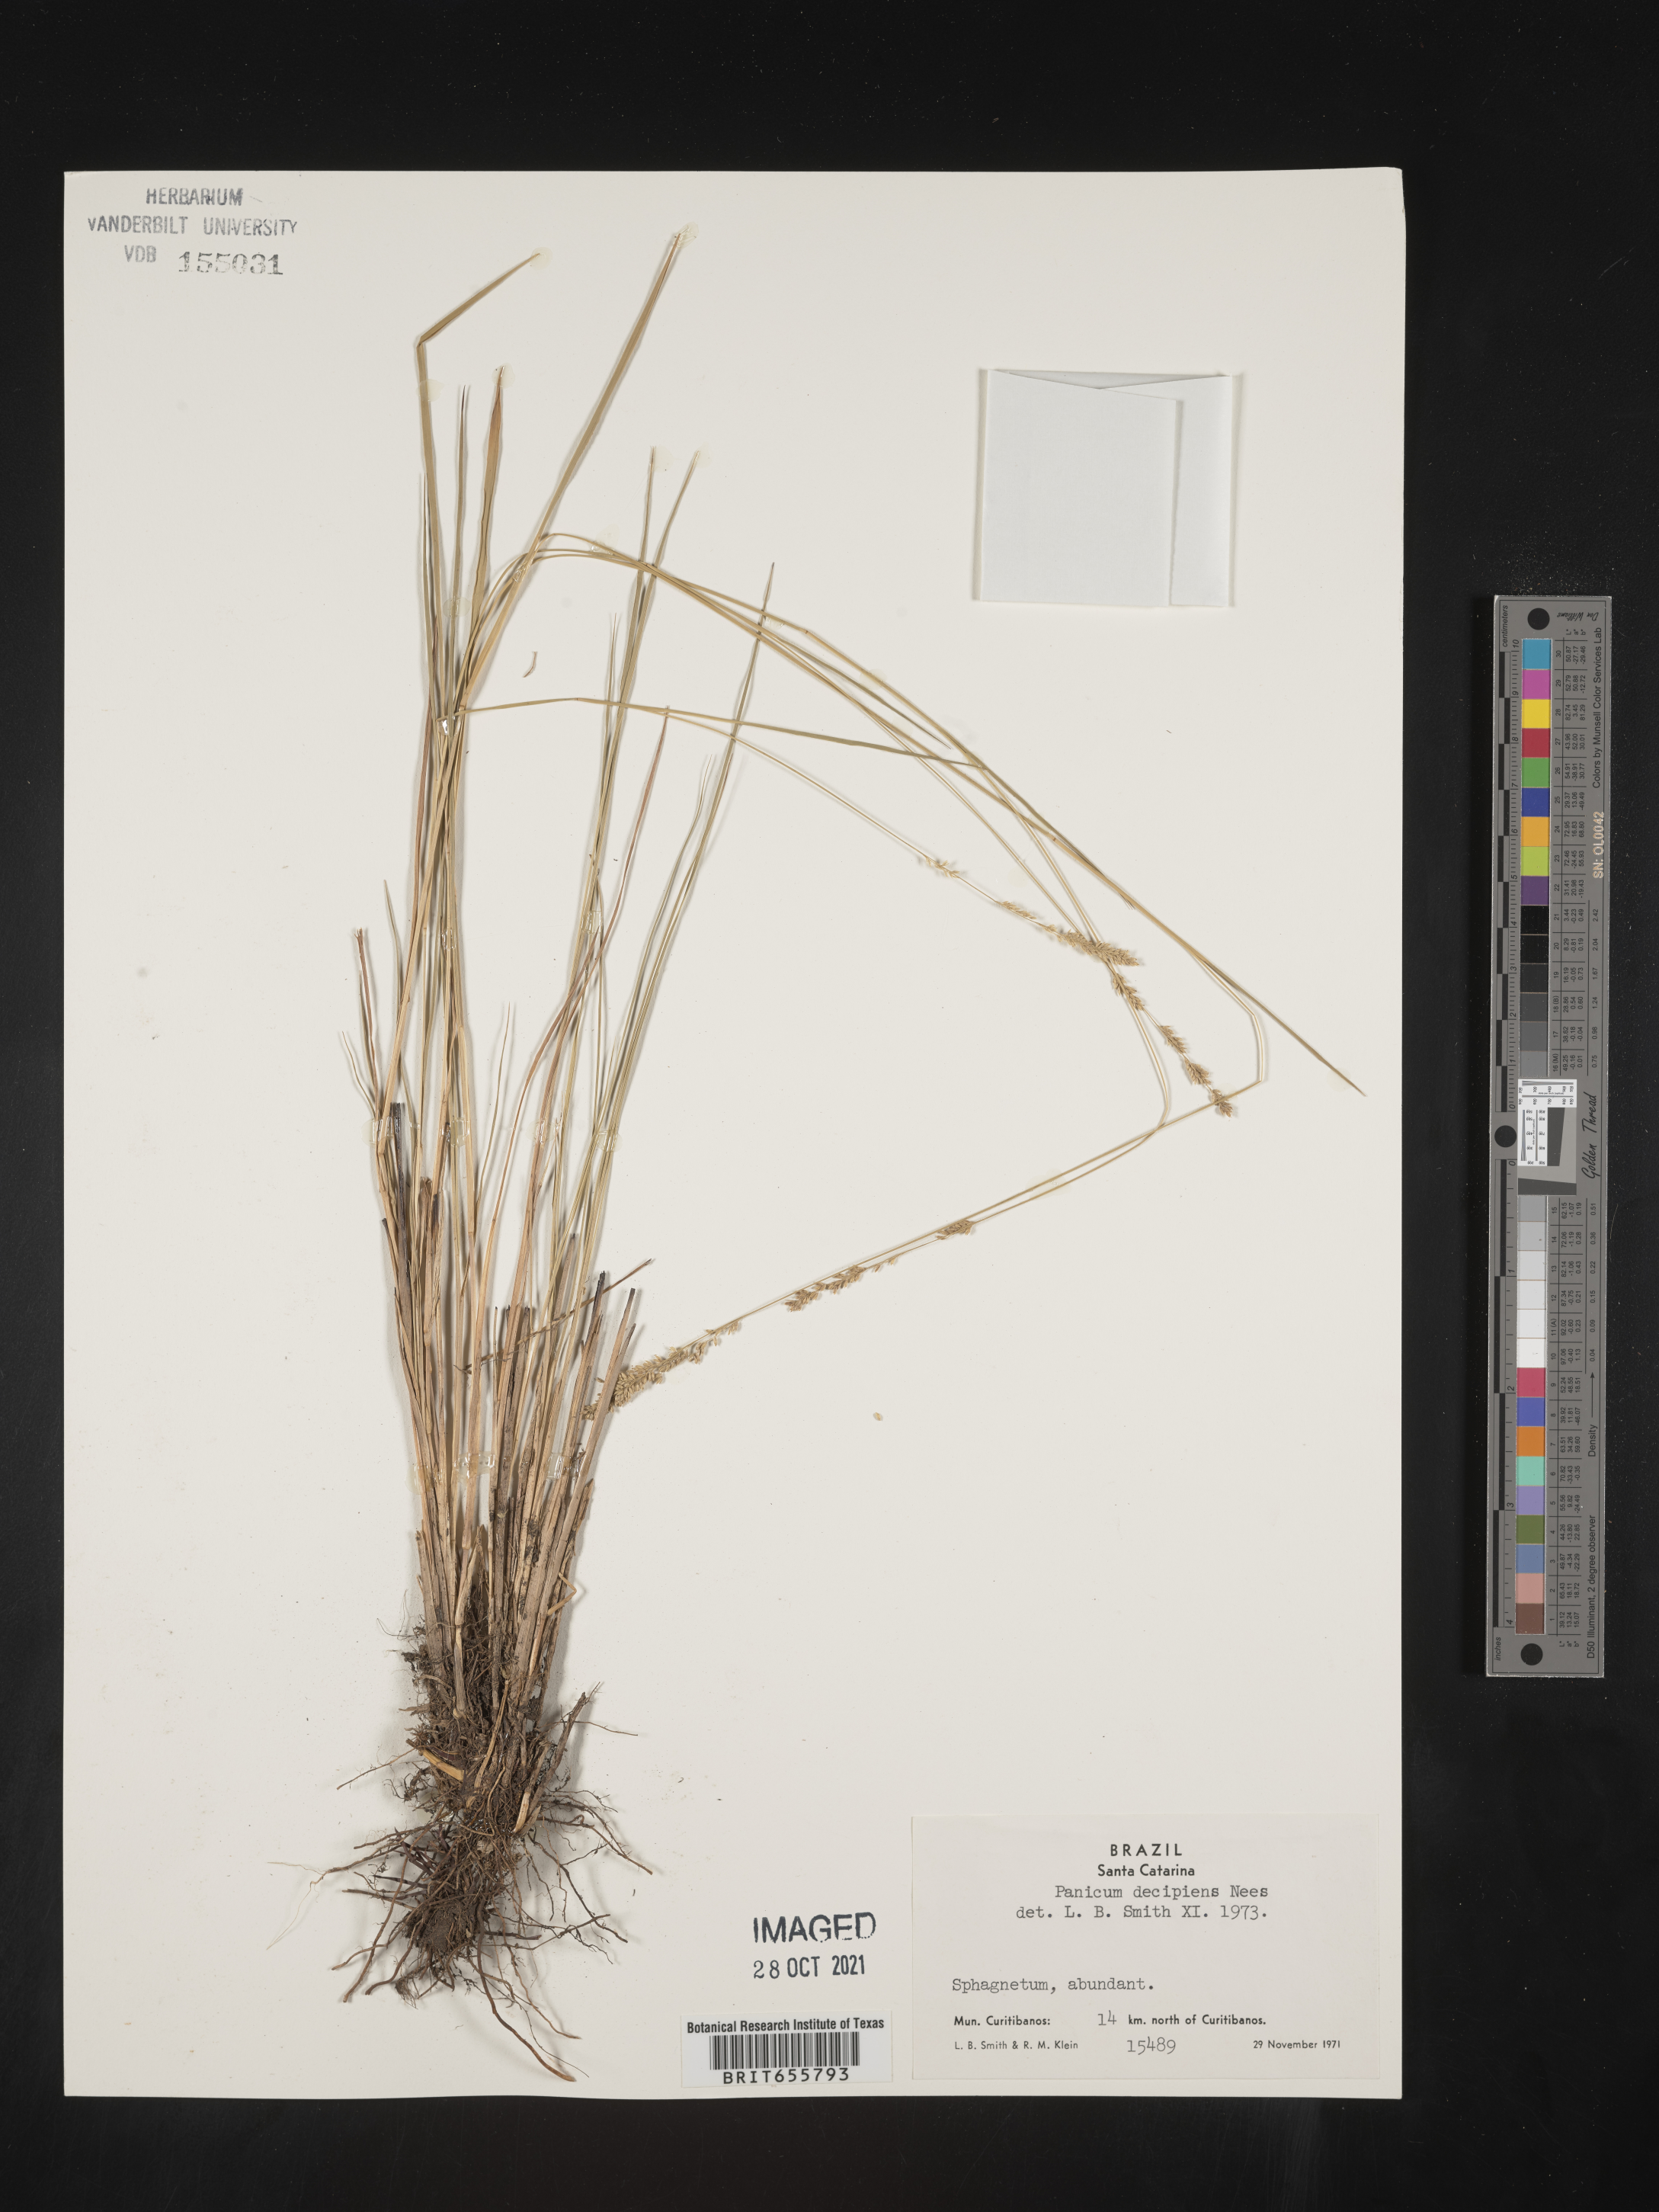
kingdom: Plantae
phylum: Tracheophyta
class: Liliopsida
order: Poales
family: Poaceae
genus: Panicum
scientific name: Panicum
